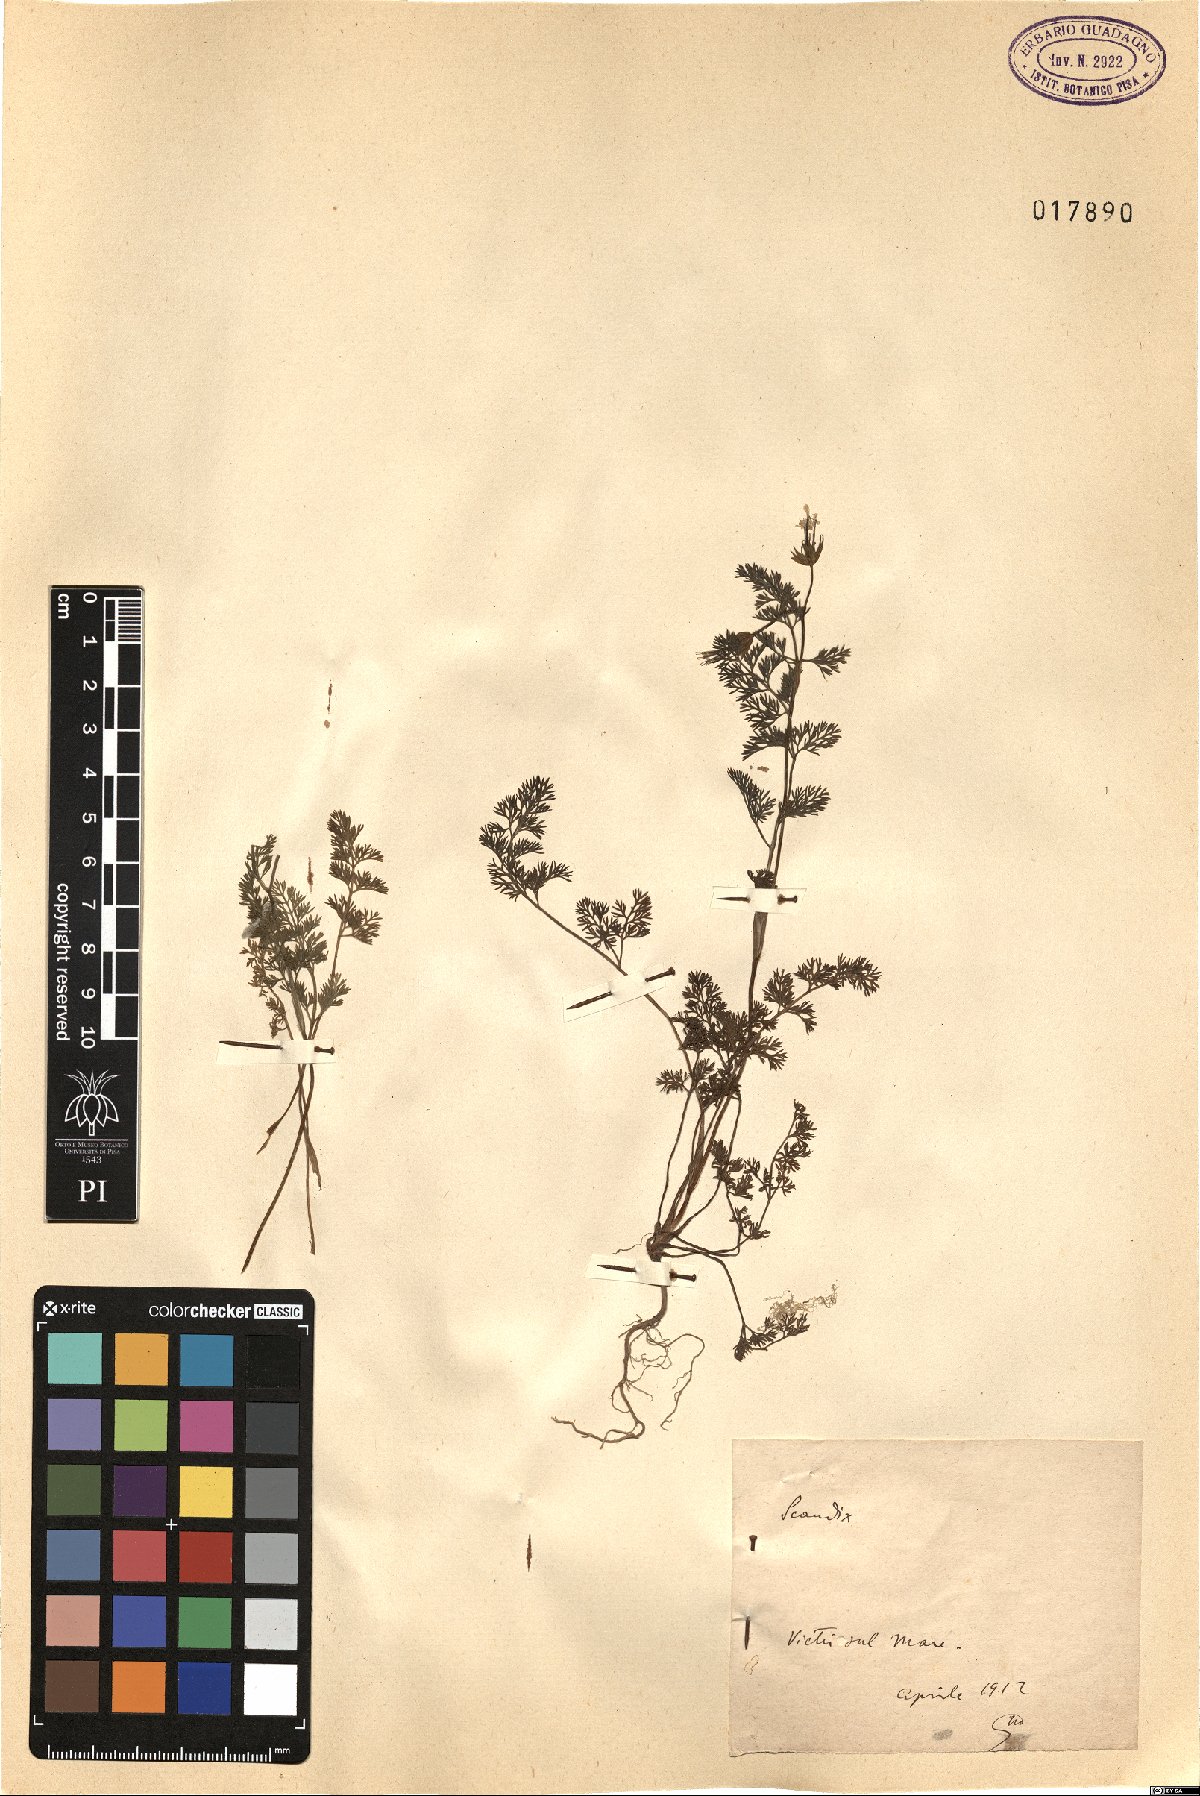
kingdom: Plantae
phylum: Tracheophyta
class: Magnoliopsida
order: Apiales
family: Apiaceae
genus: Scandix
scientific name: Scandix
